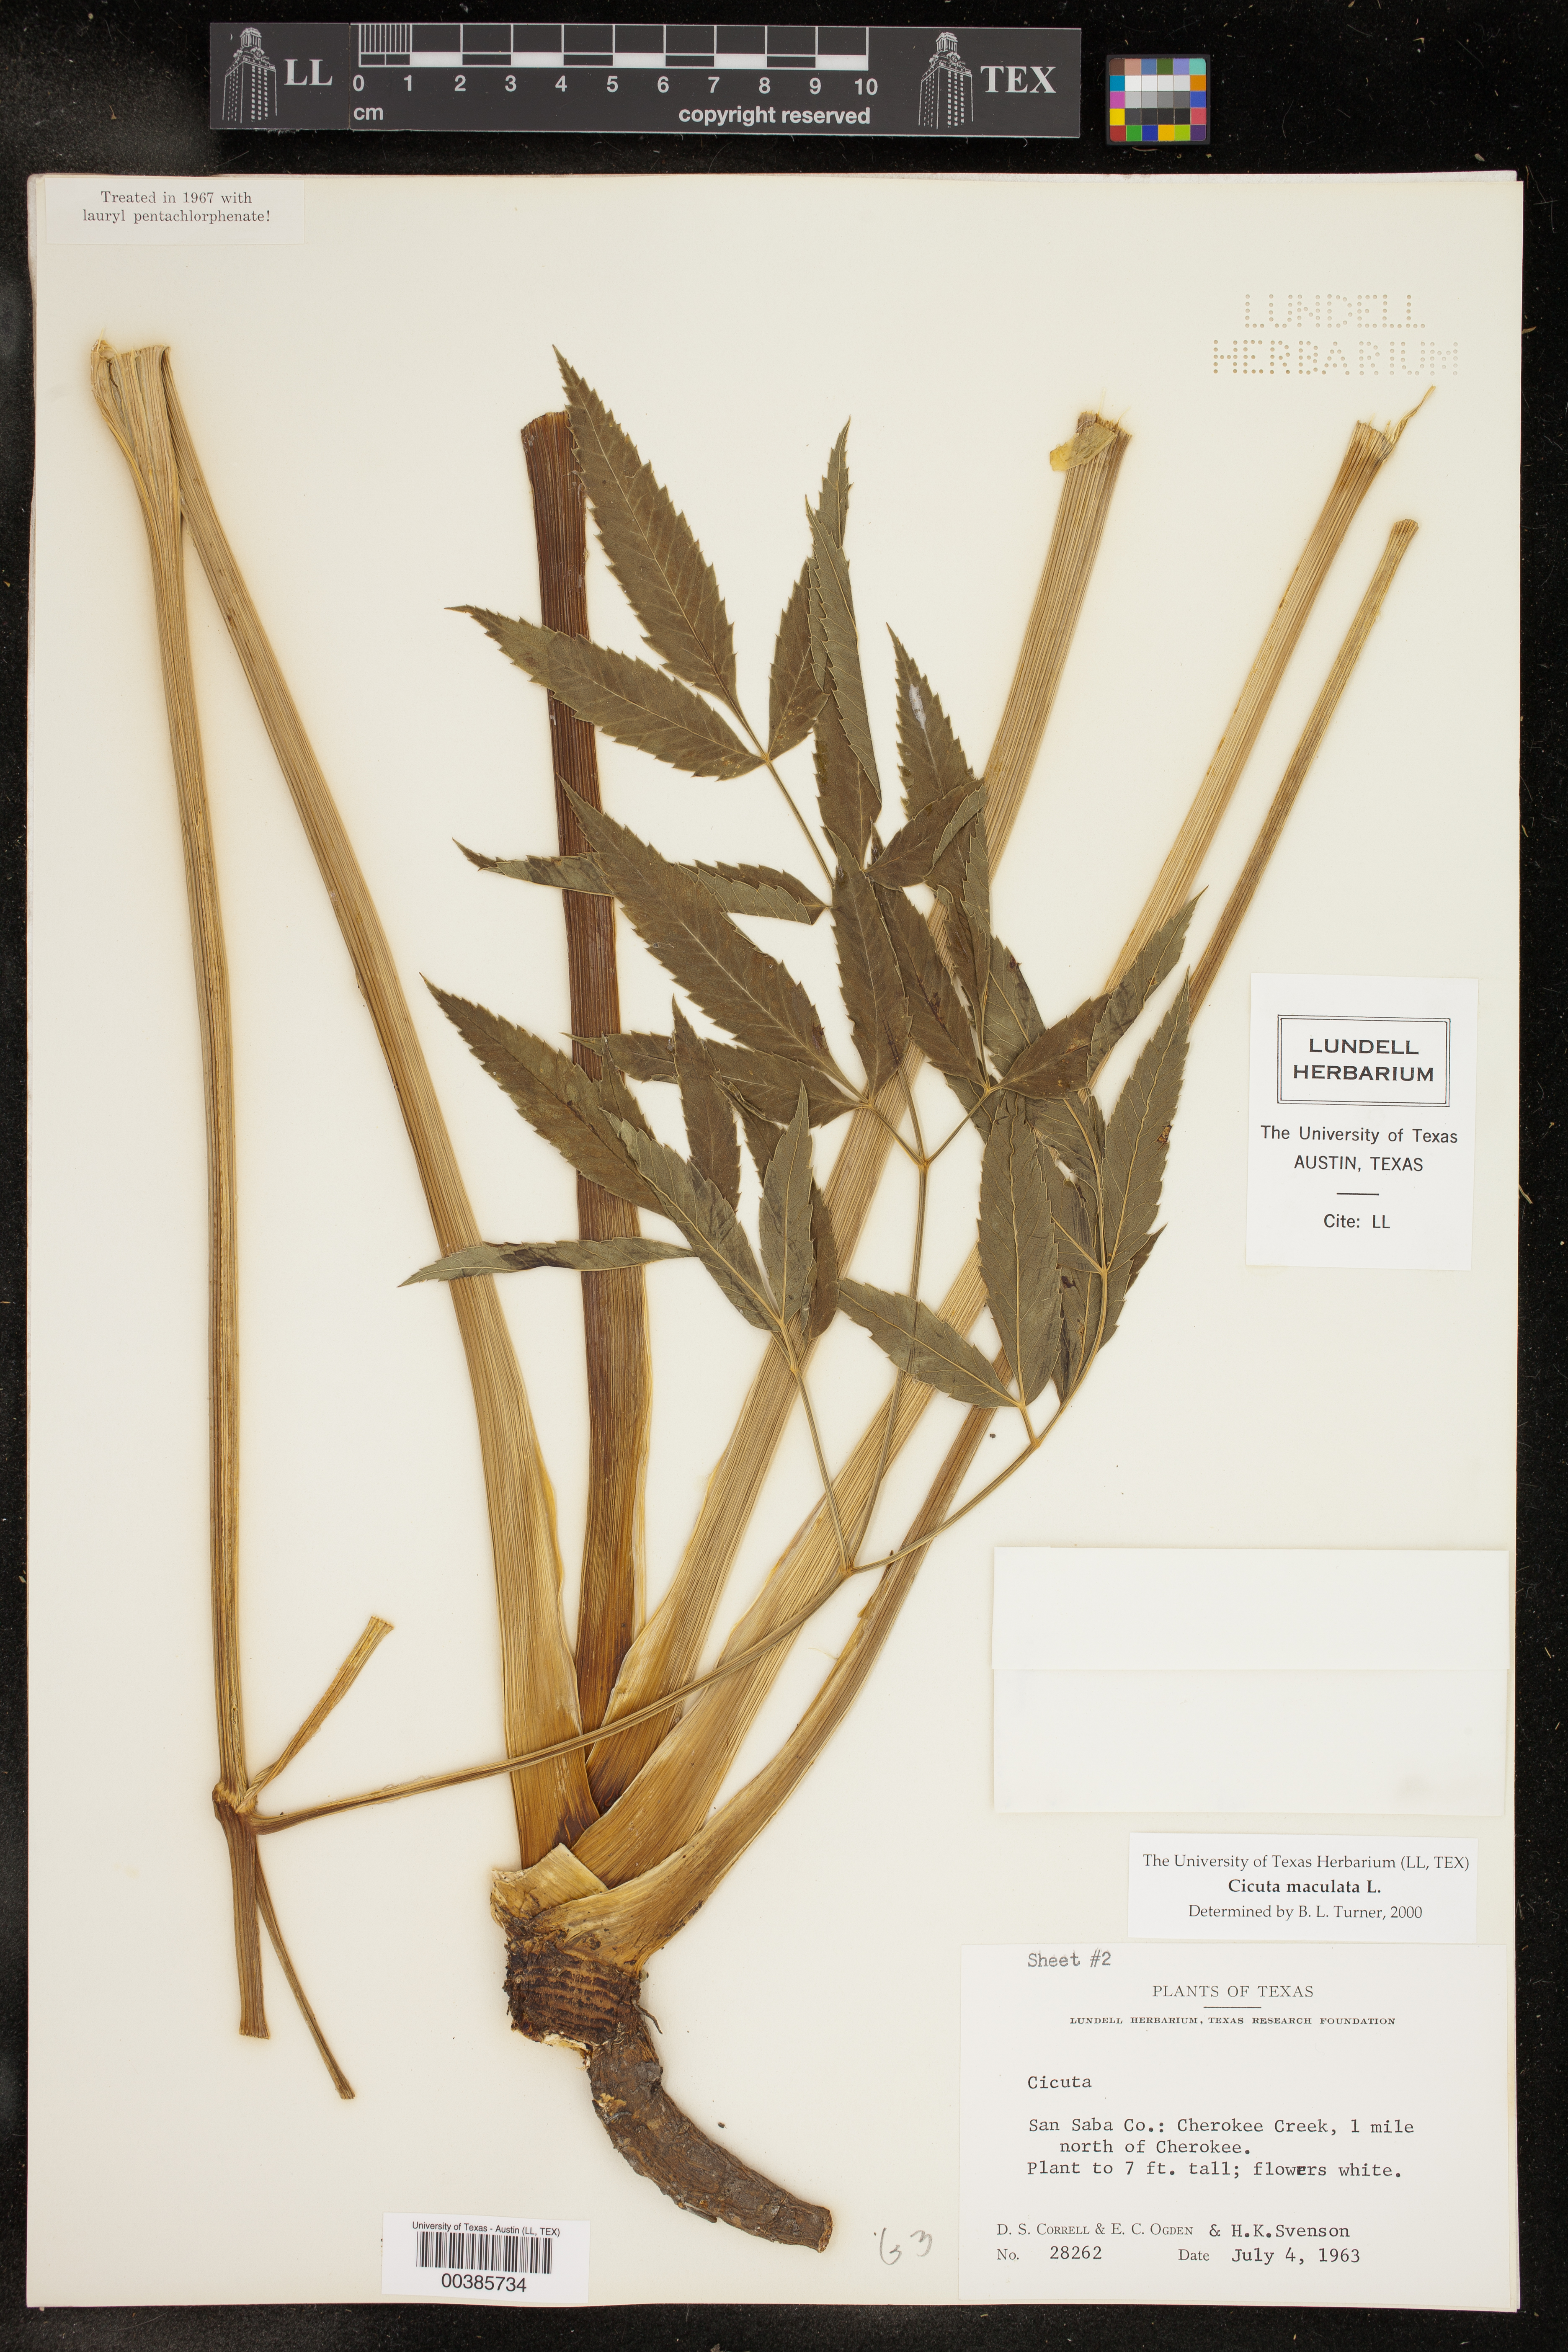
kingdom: Plantae
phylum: Tracheophyta
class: Magnoliopsida
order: Apiales
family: Apiaceae
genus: Cicuta
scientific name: Cicuta maculata
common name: Spotted cowbane
